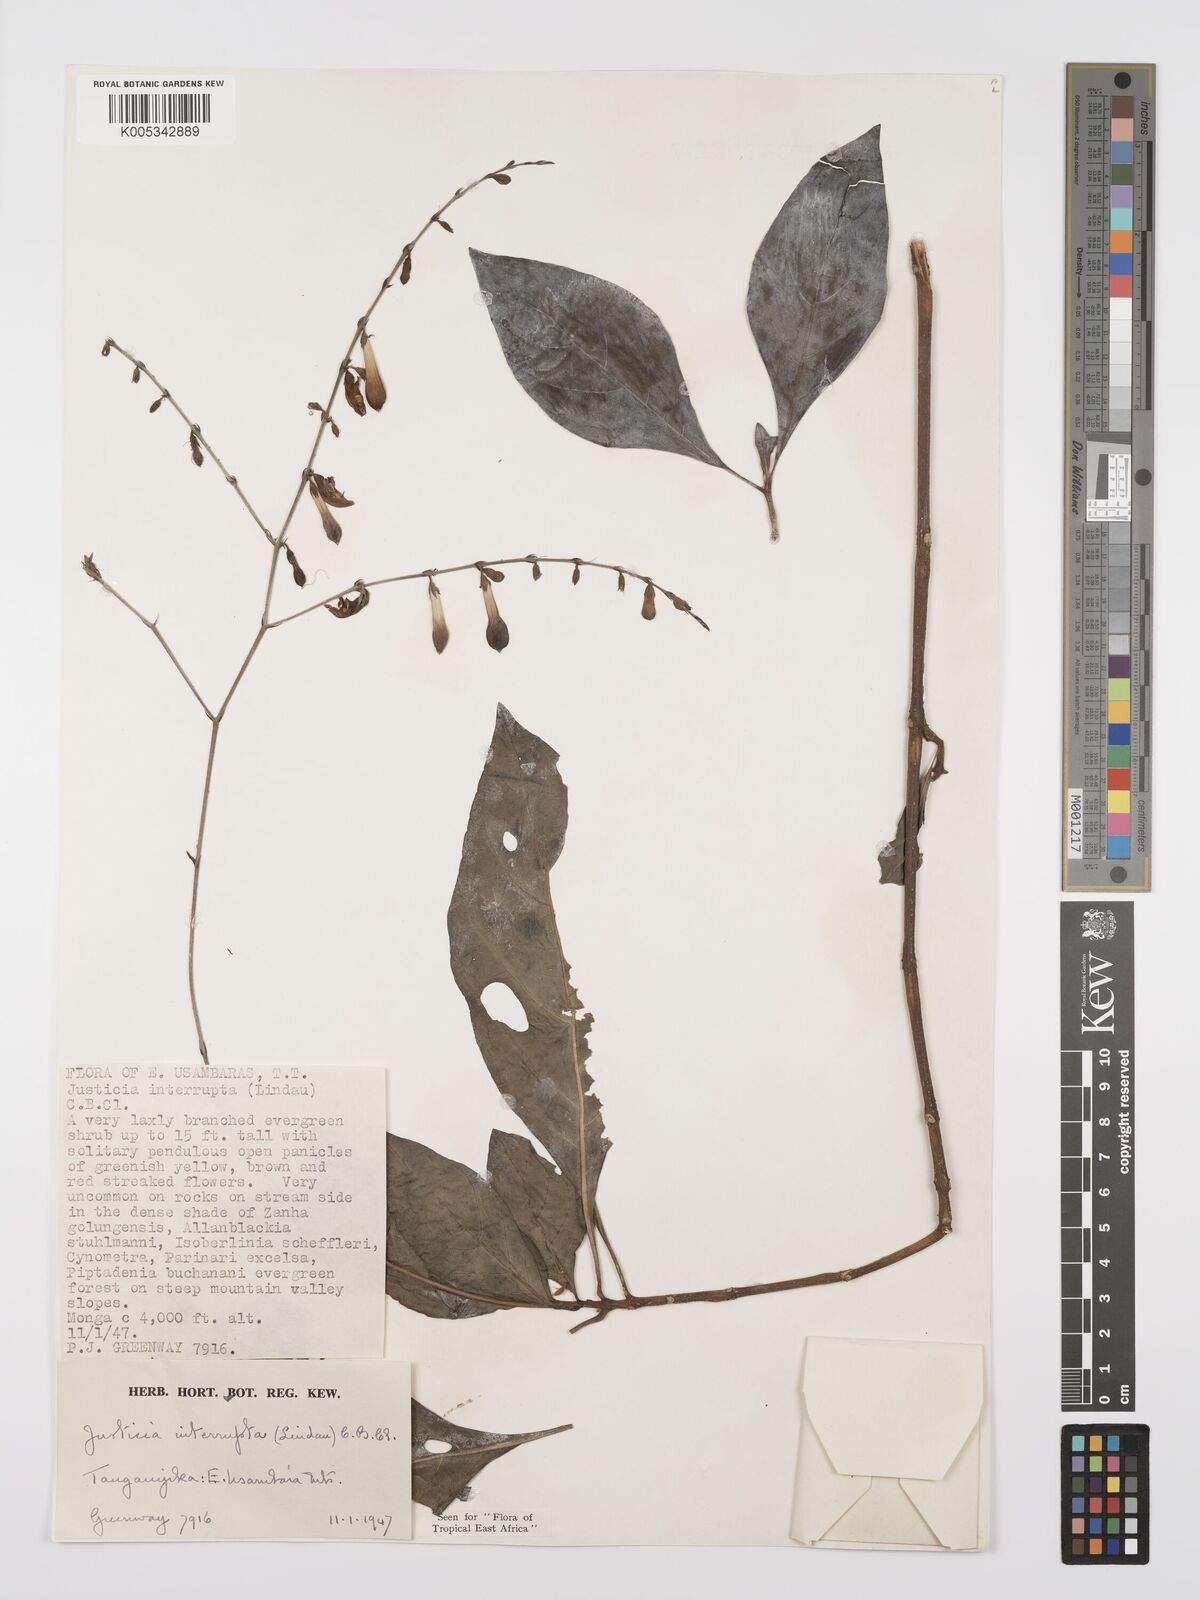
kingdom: Plantae
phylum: Tracheophyta
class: Magnoliopsida
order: Lamiales
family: Acanthaceae
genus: Justicia
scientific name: Justicia plectranthoides
